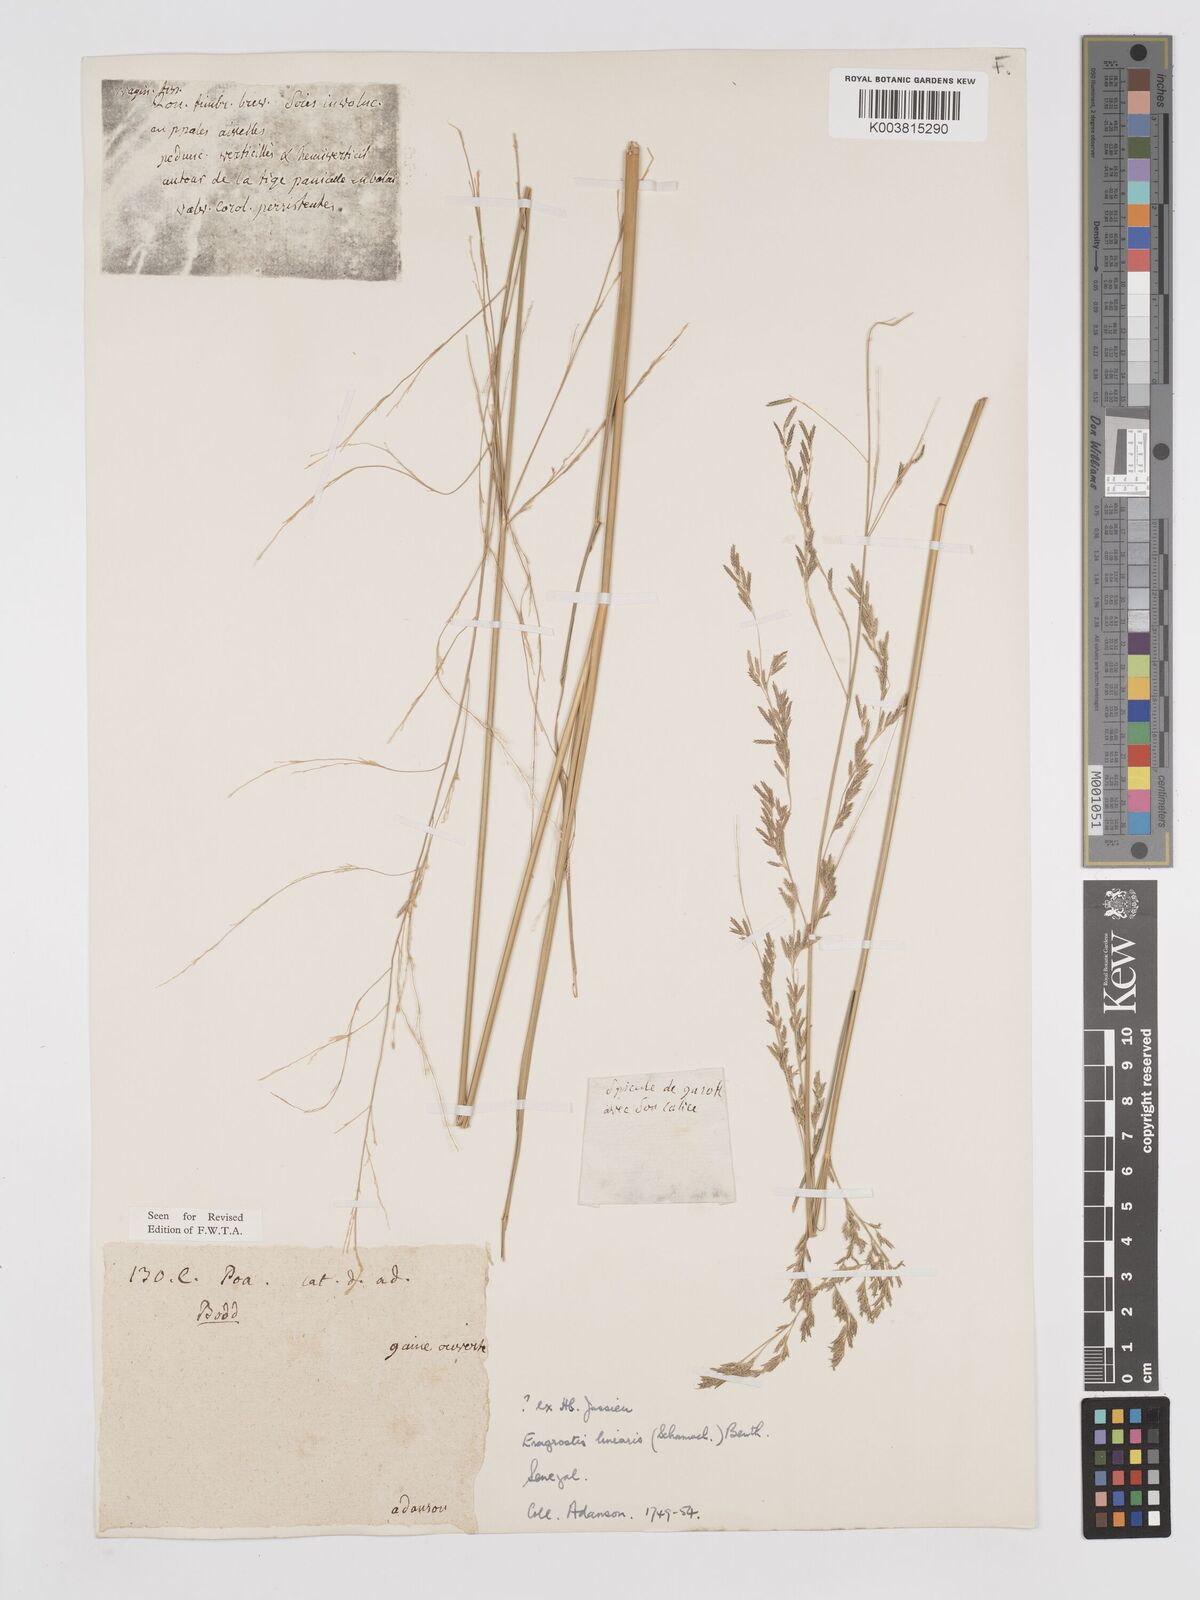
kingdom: Plantae
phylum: Tracheophyta
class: Liliopsida
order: Poales
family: Poaceae
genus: Eragrostis
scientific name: Eragrostis prolifera
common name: Dominican lovegrass
